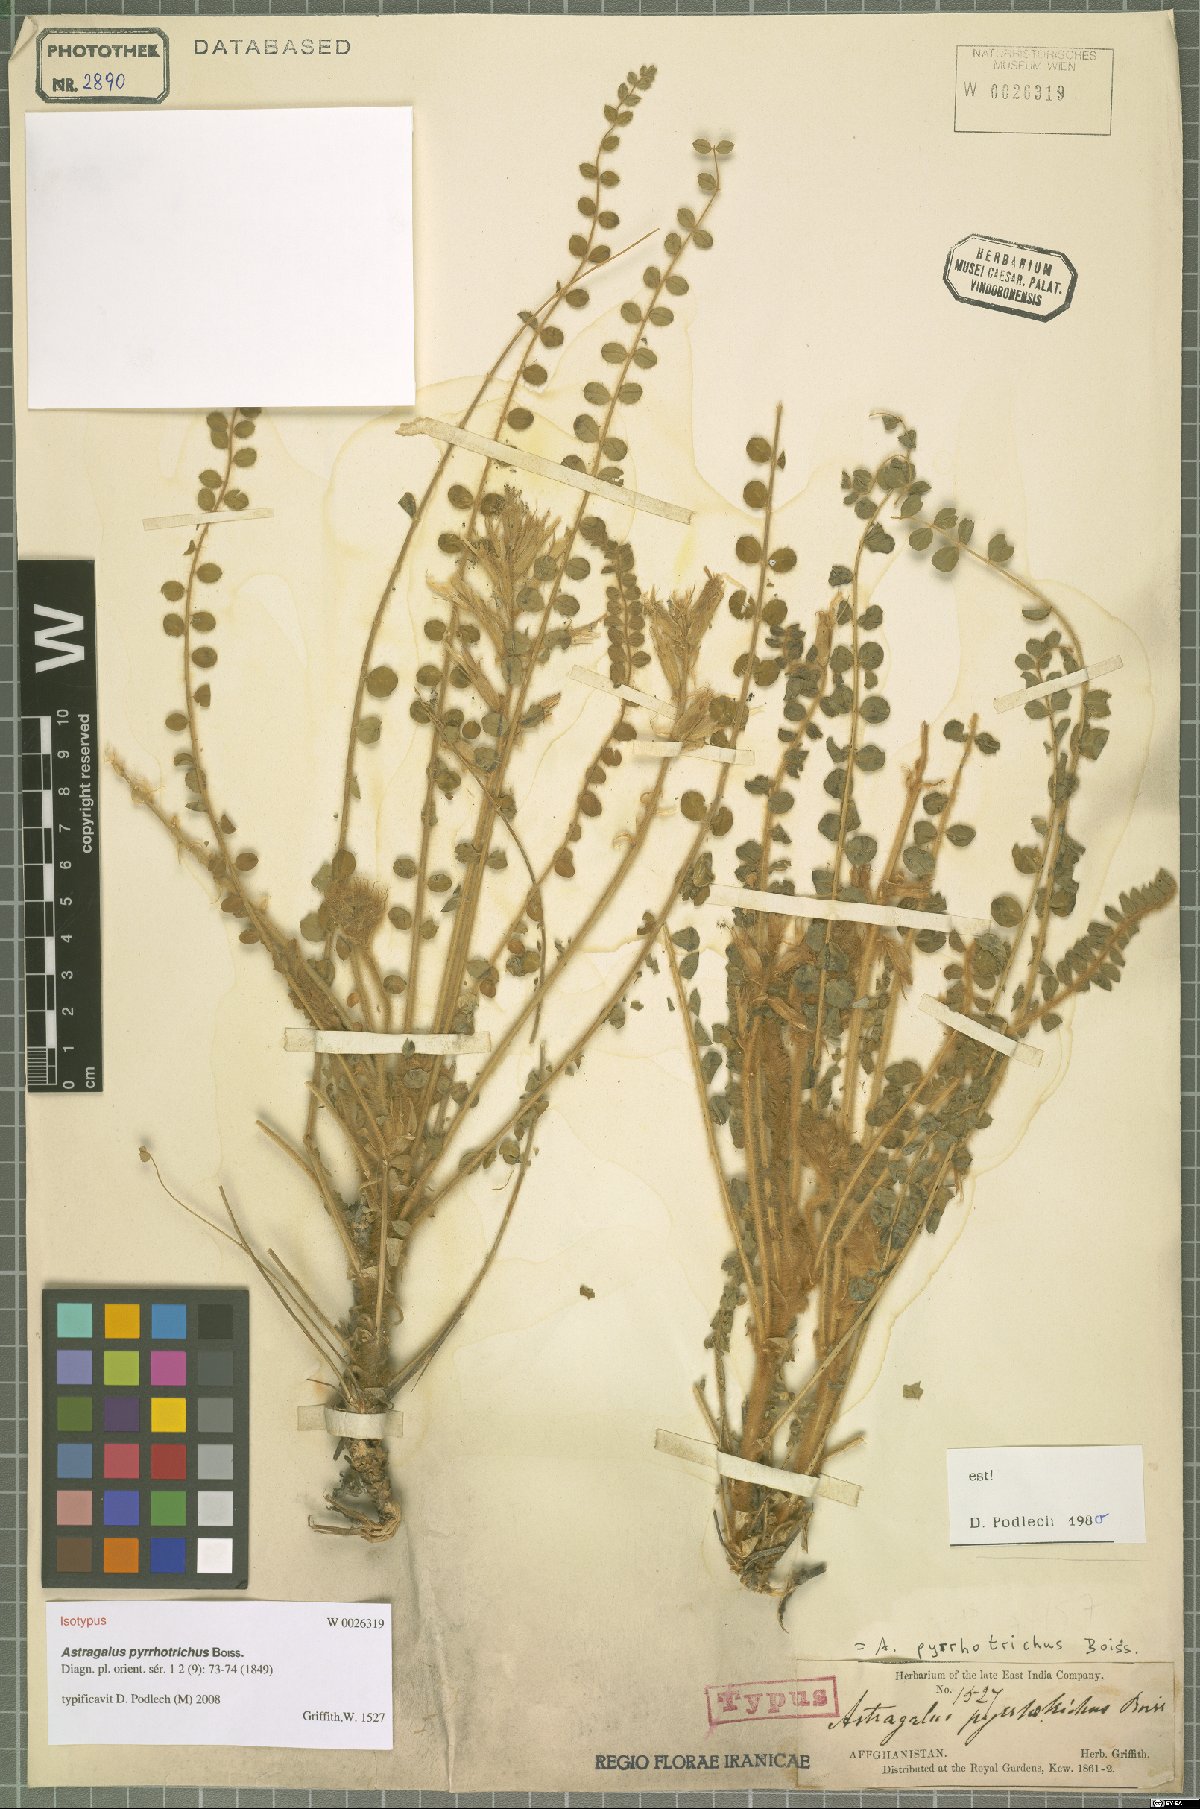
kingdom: Plantae
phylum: Tracheophyta
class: Magnoliopsida
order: Fabales
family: Fabaceae
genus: Astragalus
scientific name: Astragalus pyrrhotrichus
